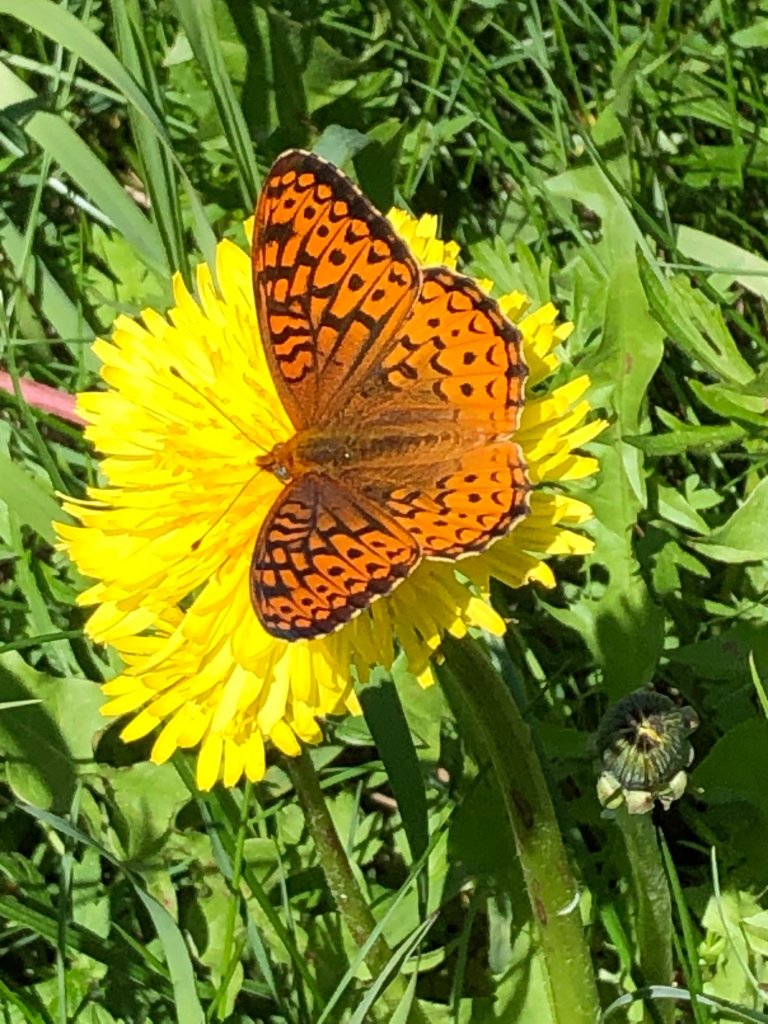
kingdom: Animalia
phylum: Arthropoda
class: Insecta
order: Lepidoptera
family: Nymphalidae
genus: Speyeria
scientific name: Speyeria atlantis
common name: Atlantis Fritillary
